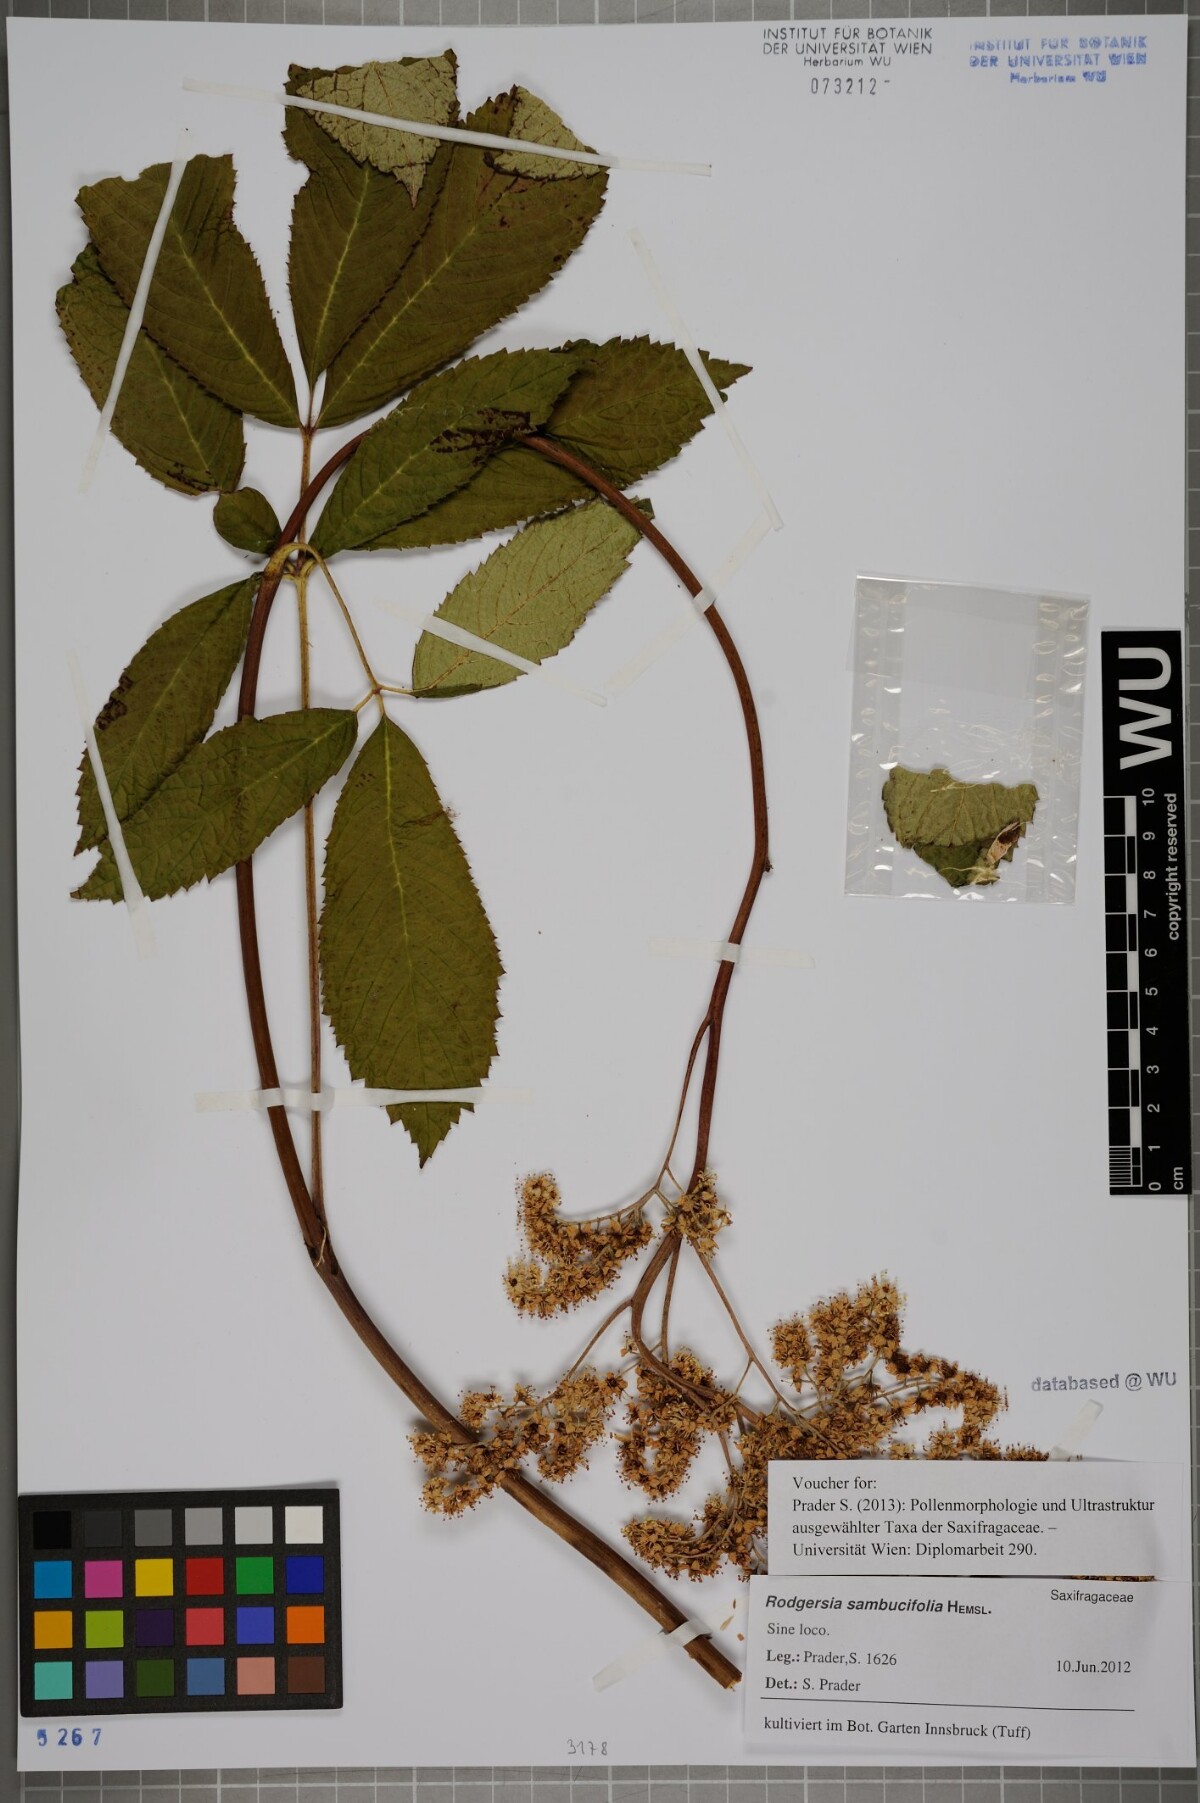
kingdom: Plantae
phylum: Tracheophyta
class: Magnoliopsida
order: Saxifragales
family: Saxifragaceae
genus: Rodgersia
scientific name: Rodgersia sambucifolia
